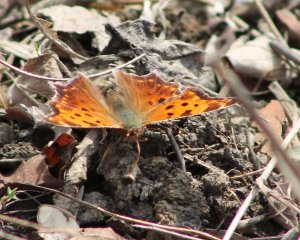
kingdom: Animalia
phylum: Arthropoda
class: Insecta
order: Lepidoptera
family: Nymphalidae
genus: Polygonia
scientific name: Polygonia comma
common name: Eastern Comma
